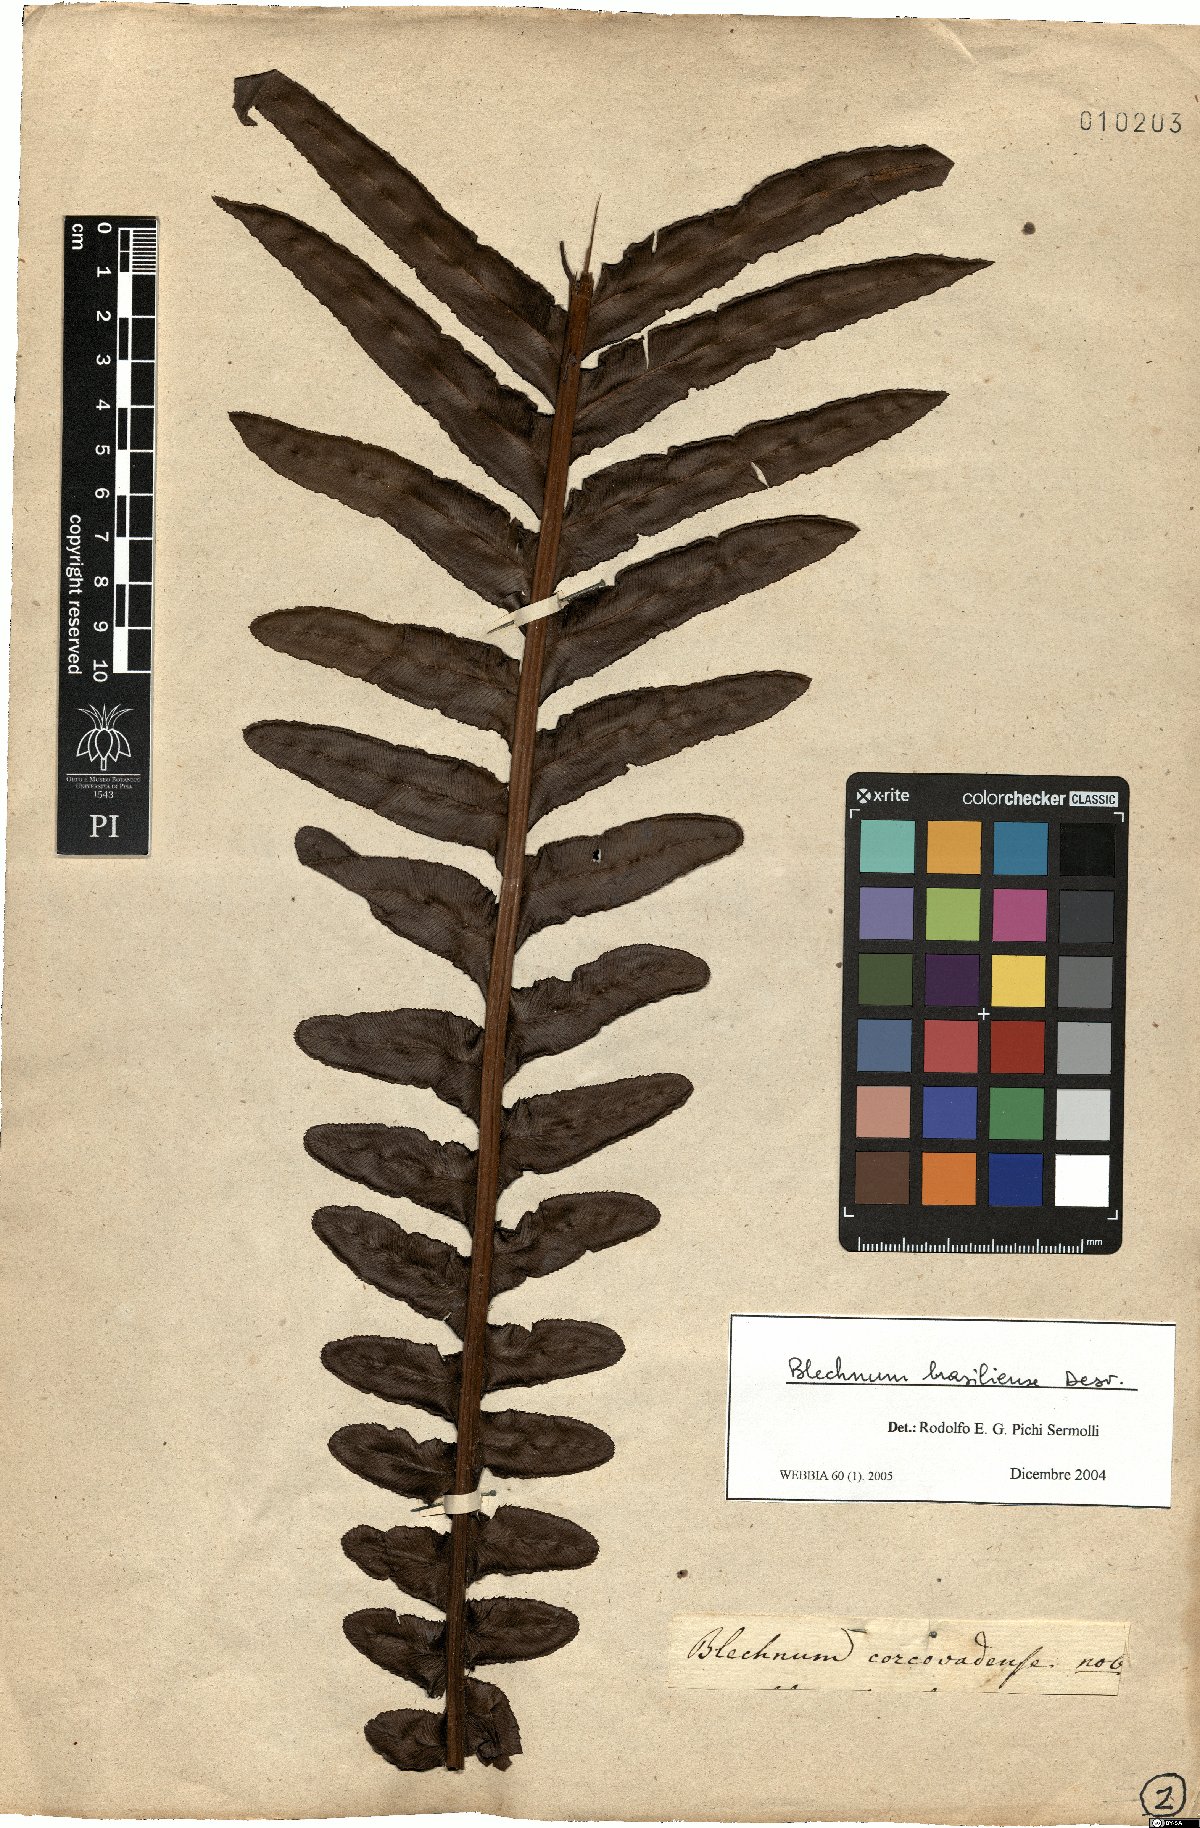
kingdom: Plantae
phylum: Tracheophyta
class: Polypodiopsida
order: Polypodiales
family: Blechnaceae
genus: Neoblechnum
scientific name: Neoblechnum brasiliense
